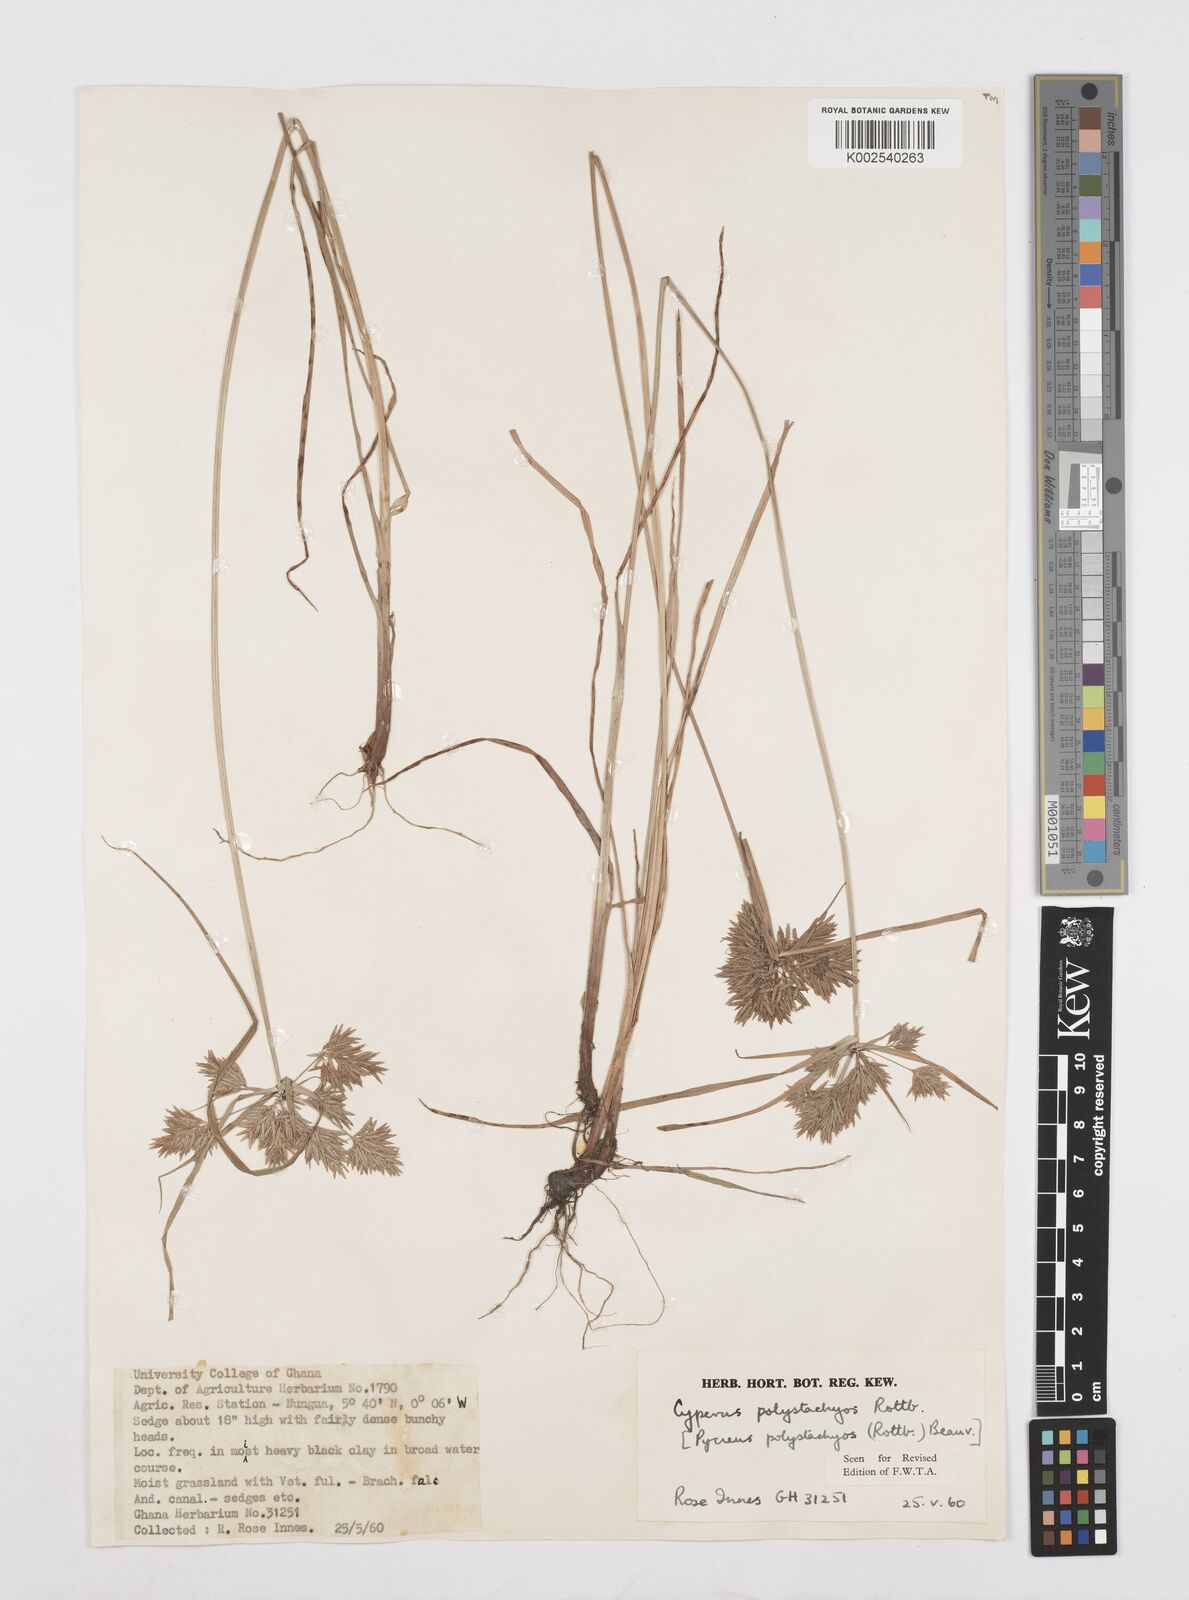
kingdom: Plantae
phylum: Tracheophyta
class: Liliopsida
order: Poales
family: Cyperaceae
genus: Cyperus
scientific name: Cyperus polystachyos
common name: Bunchy flat sedge
